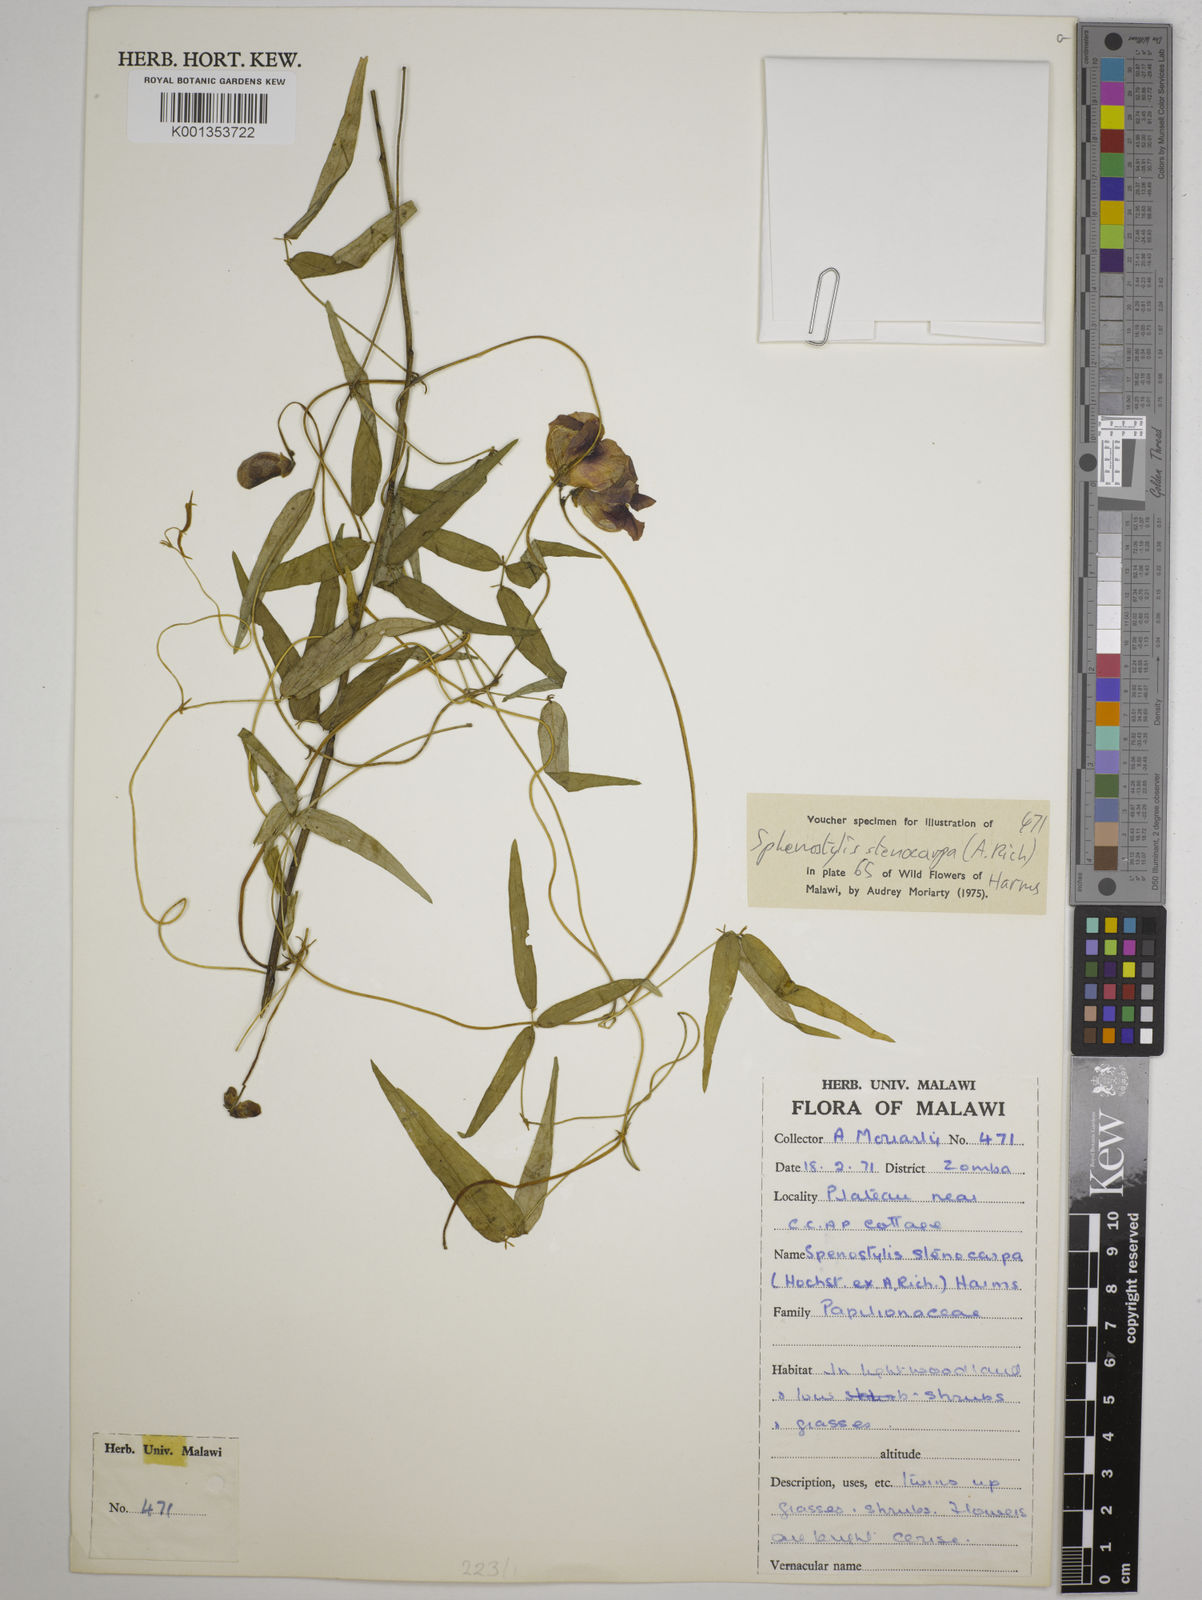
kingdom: Plantae
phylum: Tracheophyta
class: Magnoliopsida
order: Fabales
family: Fabaceae
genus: Sphenostylis
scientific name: Sphenostylis stenocarpa
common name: Yam-pea
